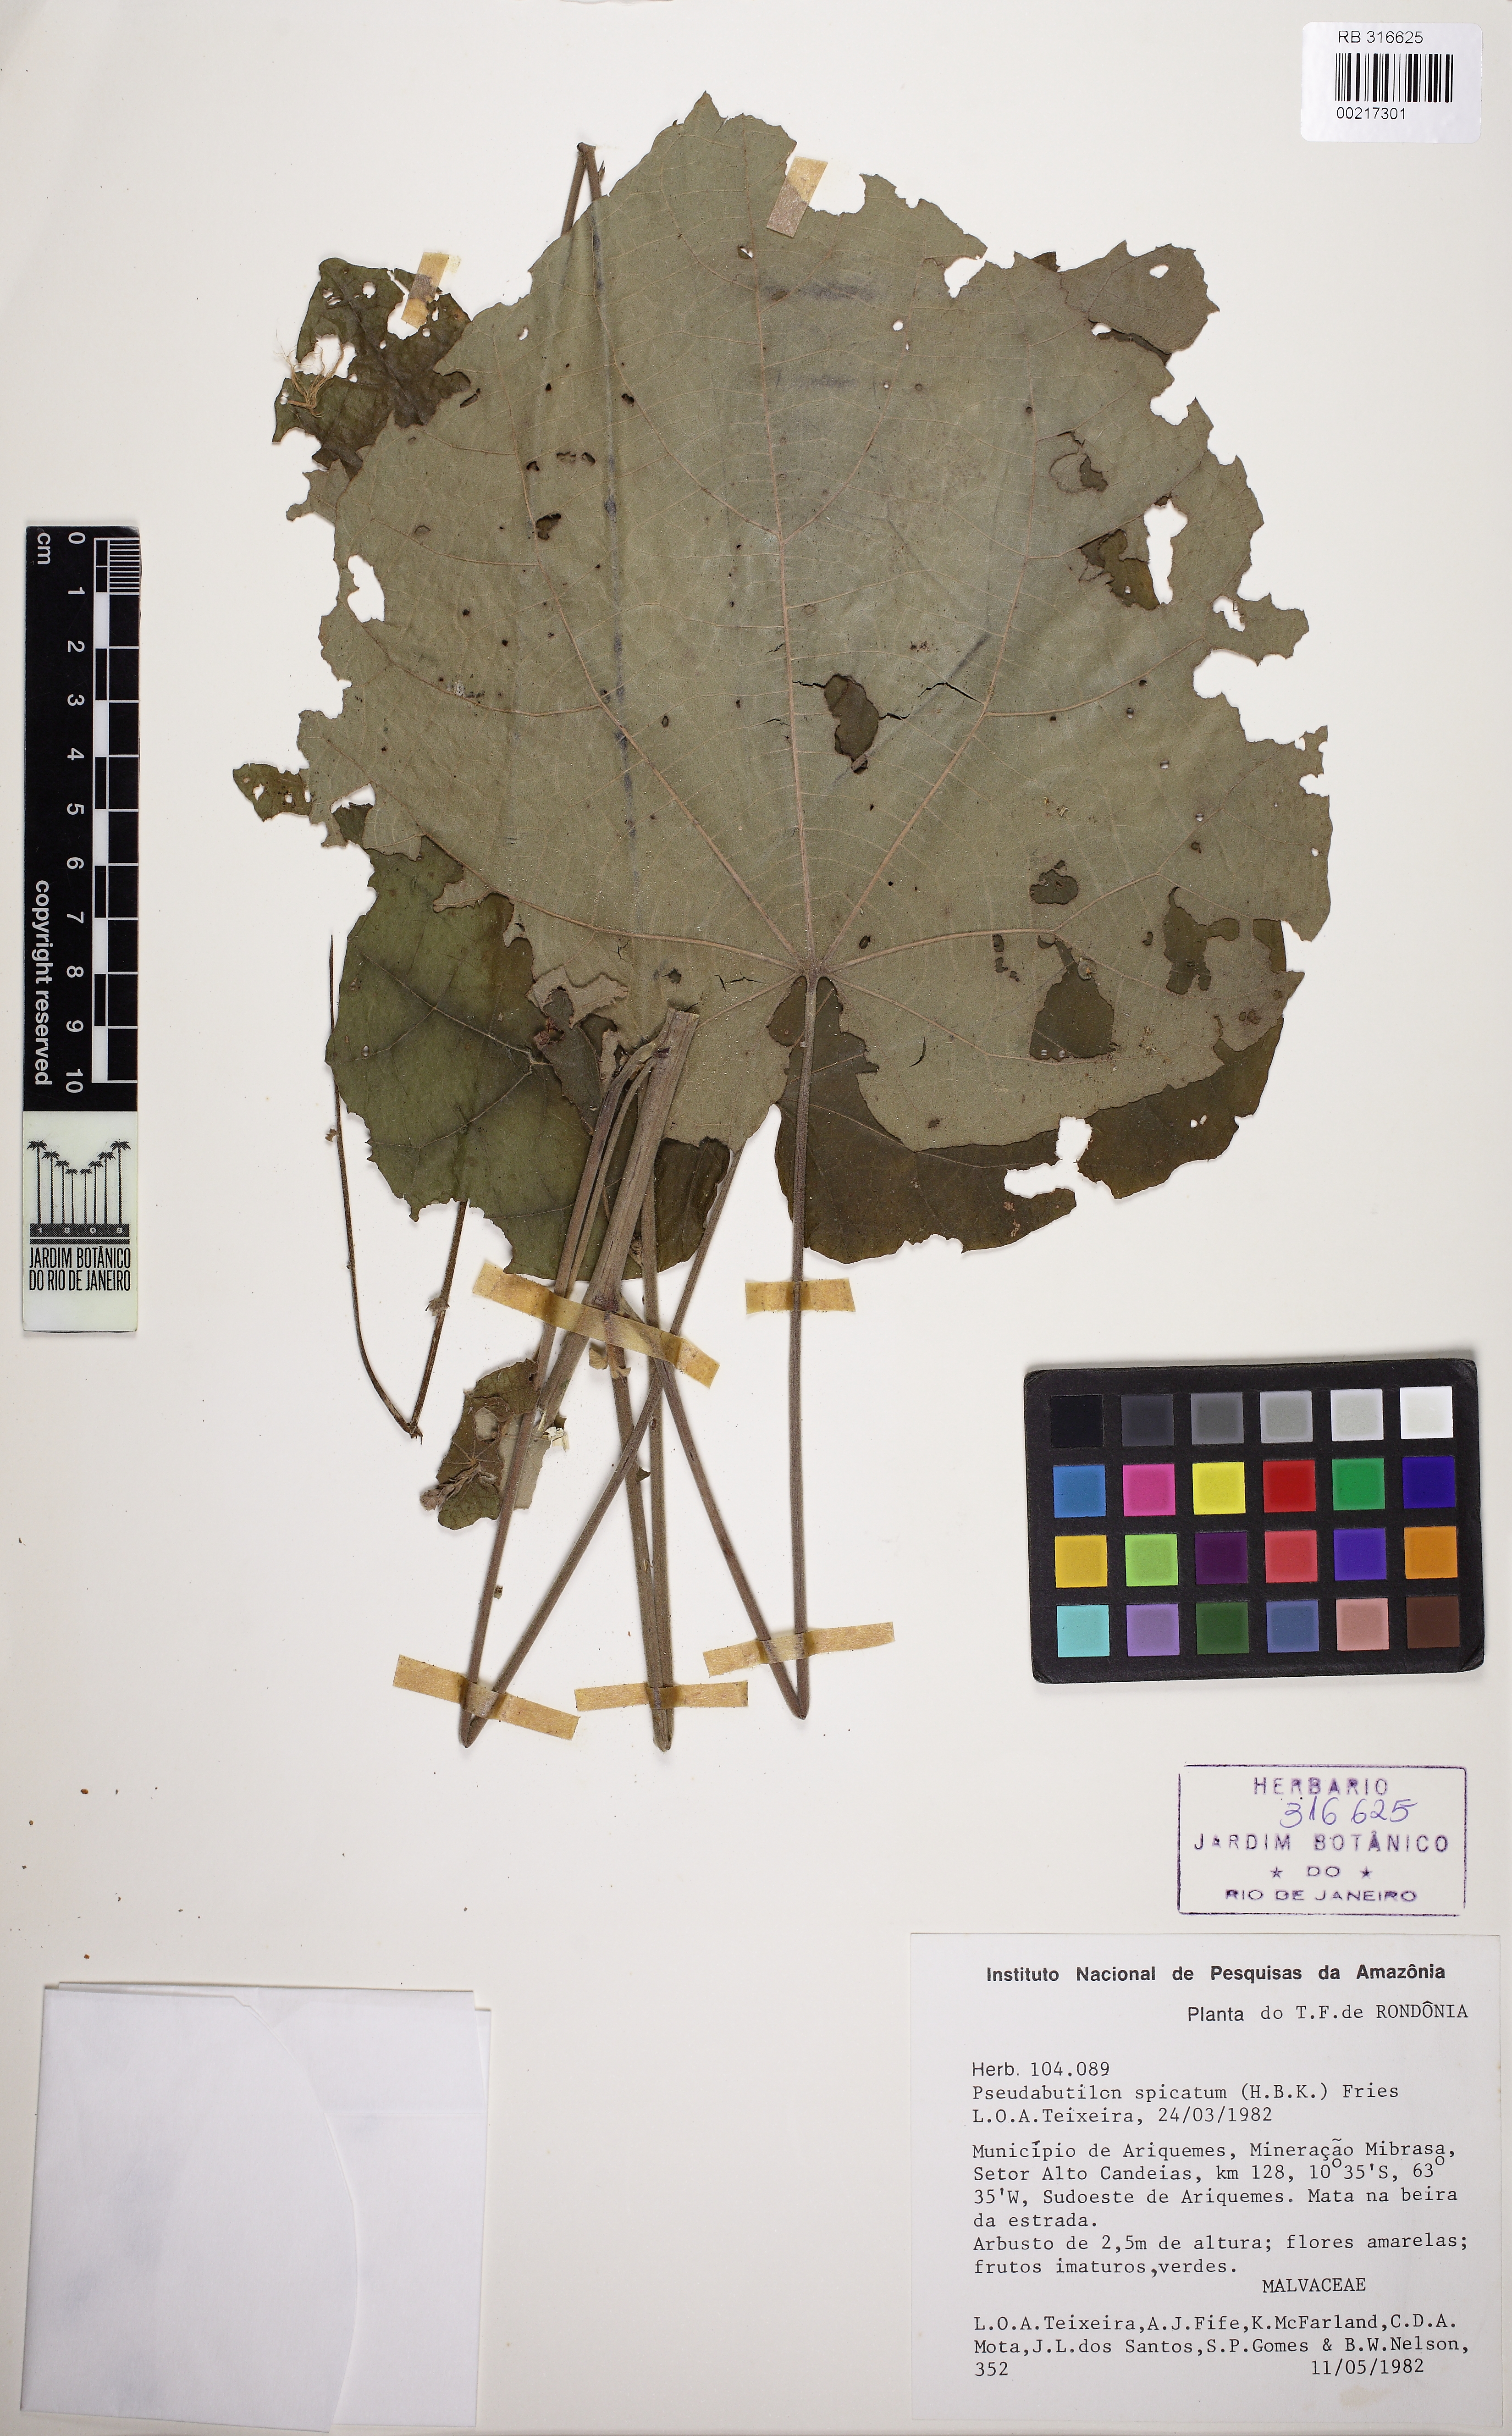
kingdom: Plantae
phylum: Tracheophyta
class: Magnoliopsida
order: Malvales
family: Malvaceae
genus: Allobriquetia
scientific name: Allobriquetia spicata
